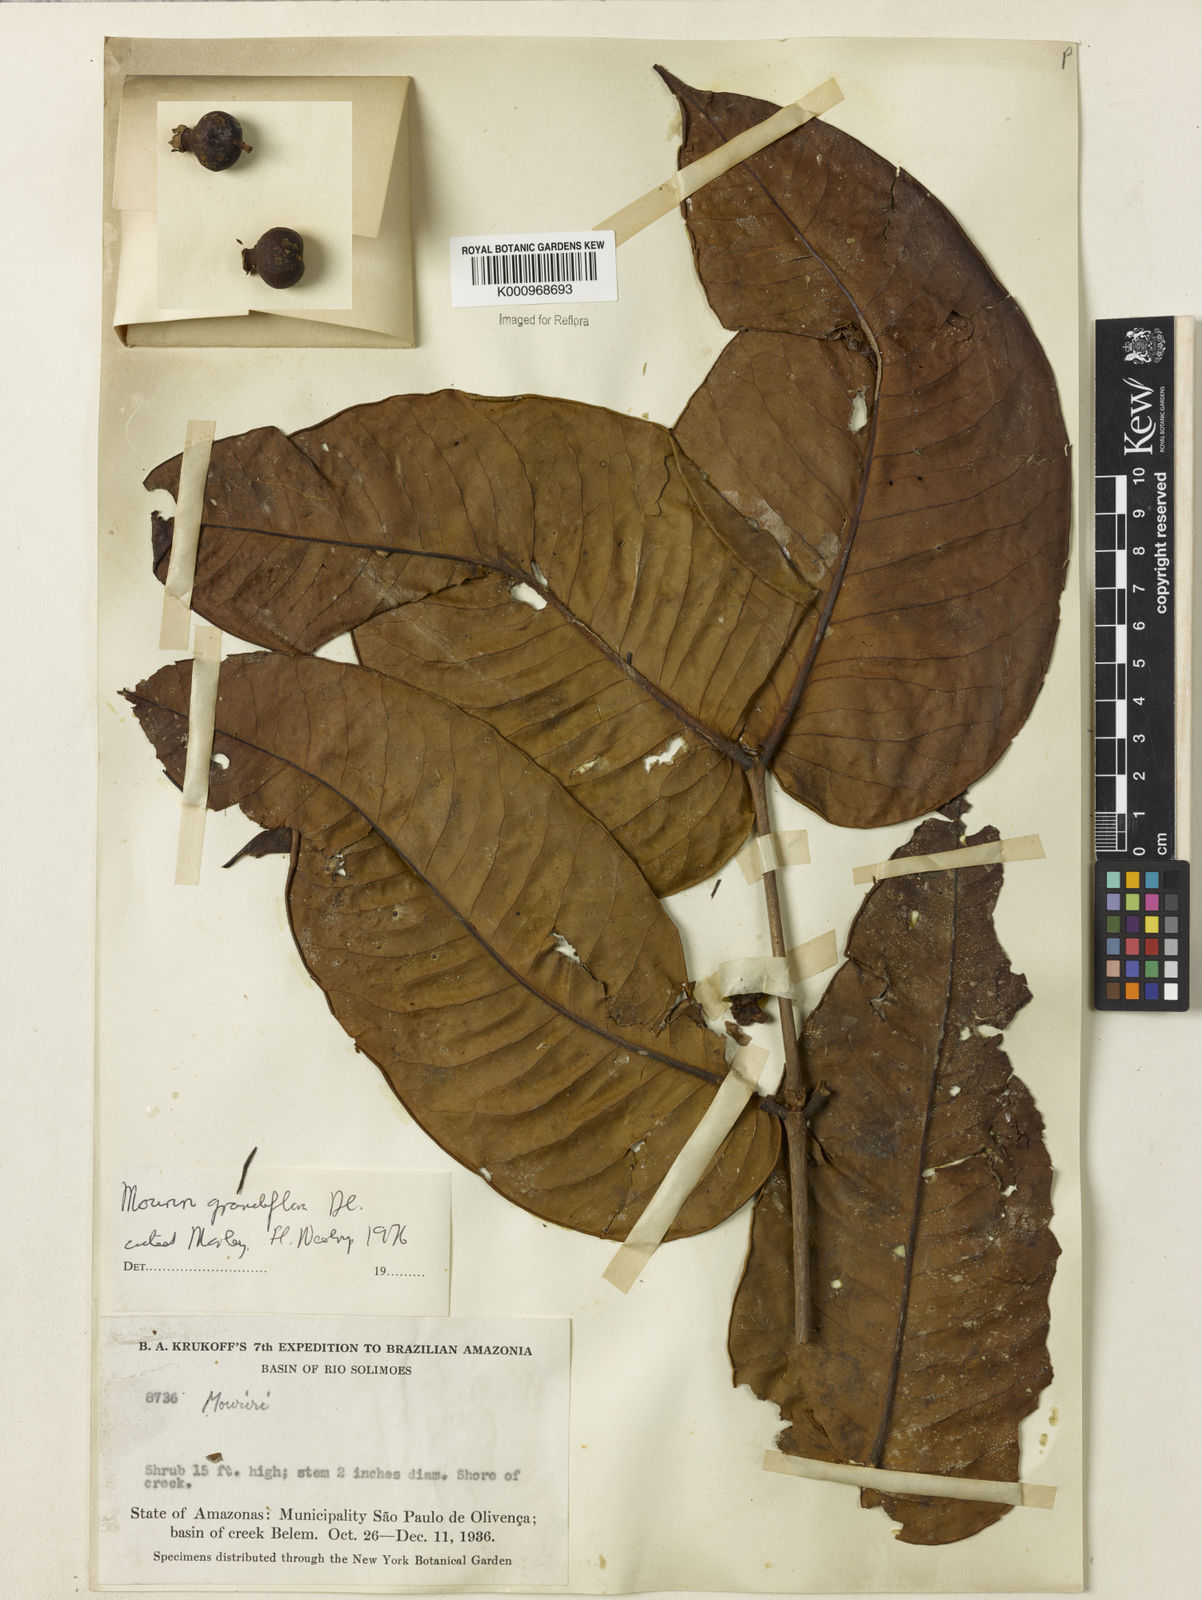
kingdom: Plantae
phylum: Tracheophyta
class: Magnoliopsida
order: Myrtales
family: Melastomataceae
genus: Mouriri
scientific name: Mouriri grandiflora
